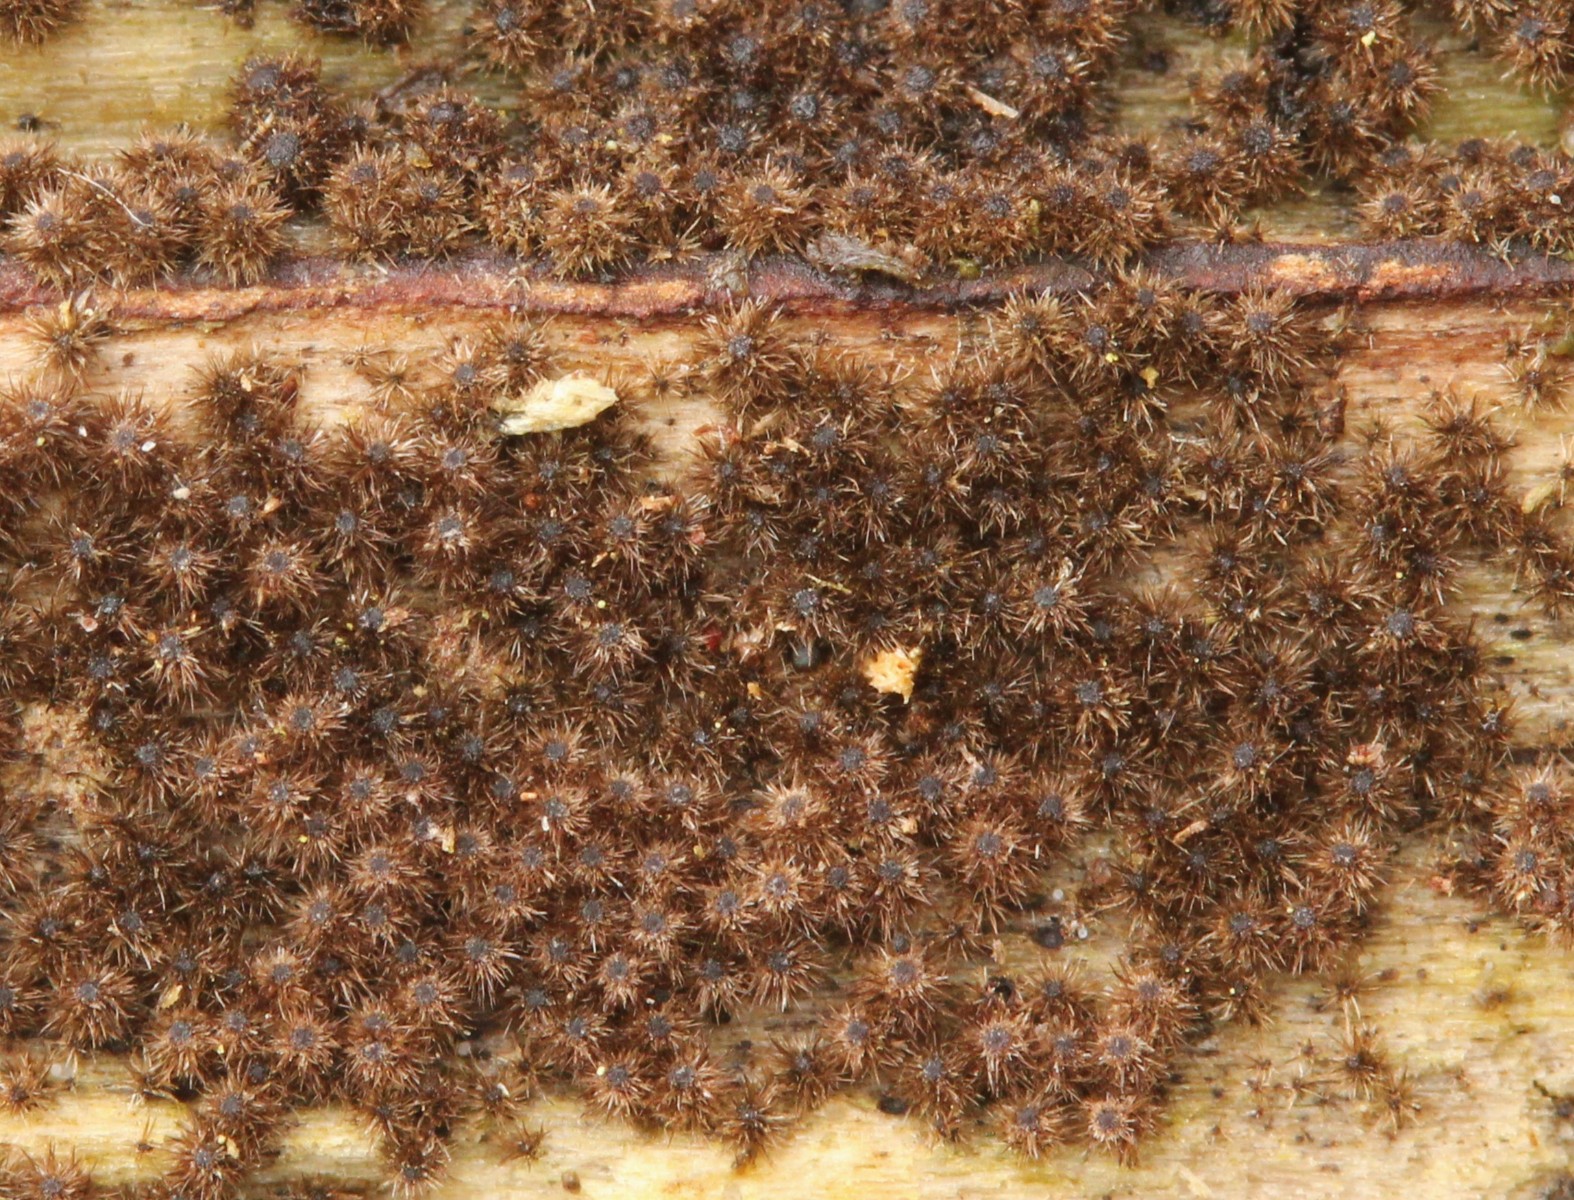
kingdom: Fungi
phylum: Ascomycota
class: Sordariomycetes
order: Sordariales
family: Helminthosphaeriaceae
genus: Echinosphaeria
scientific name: Echinosphaeria
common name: børstekerne
